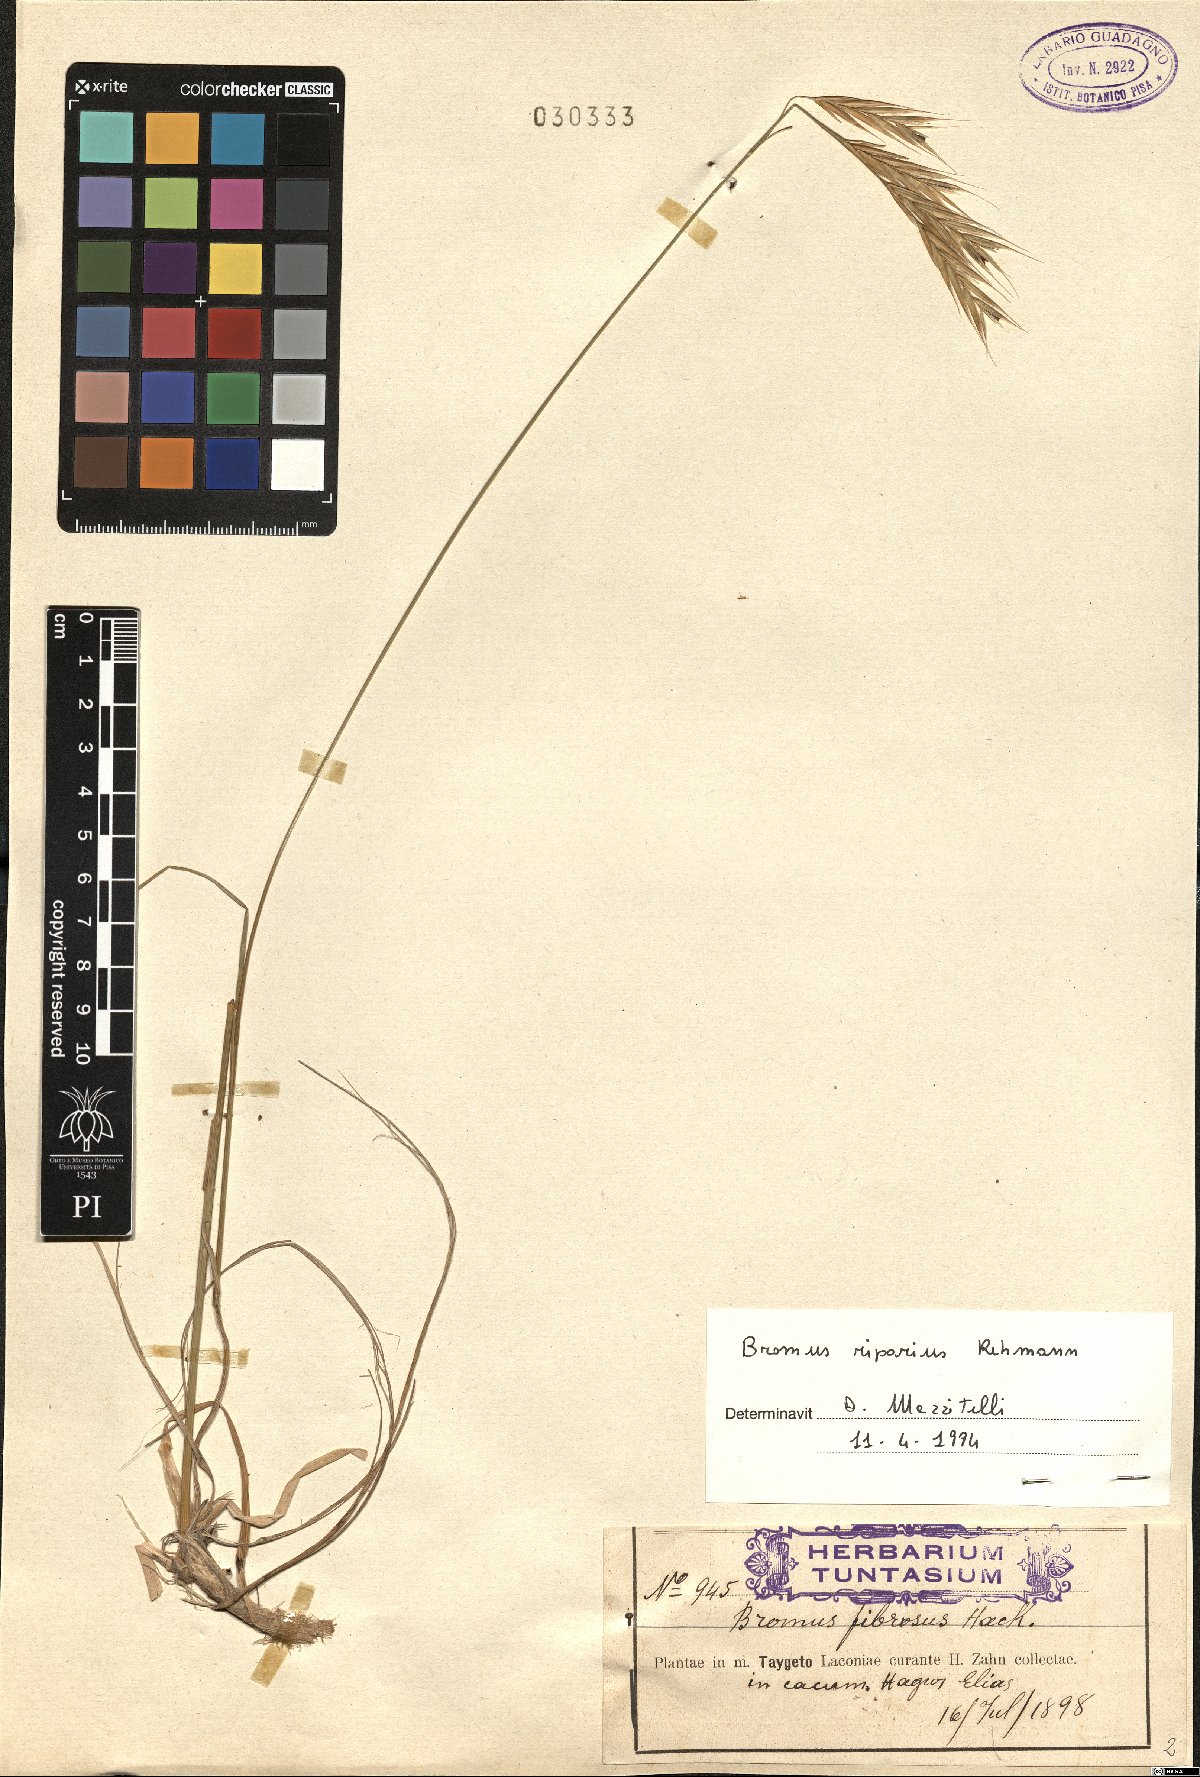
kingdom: Plantae
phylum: Tracheophyta
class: Liliopsida
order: Poales
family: Poaceae
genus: Bromus
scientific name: Bromus riparius
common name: Meadow brome
